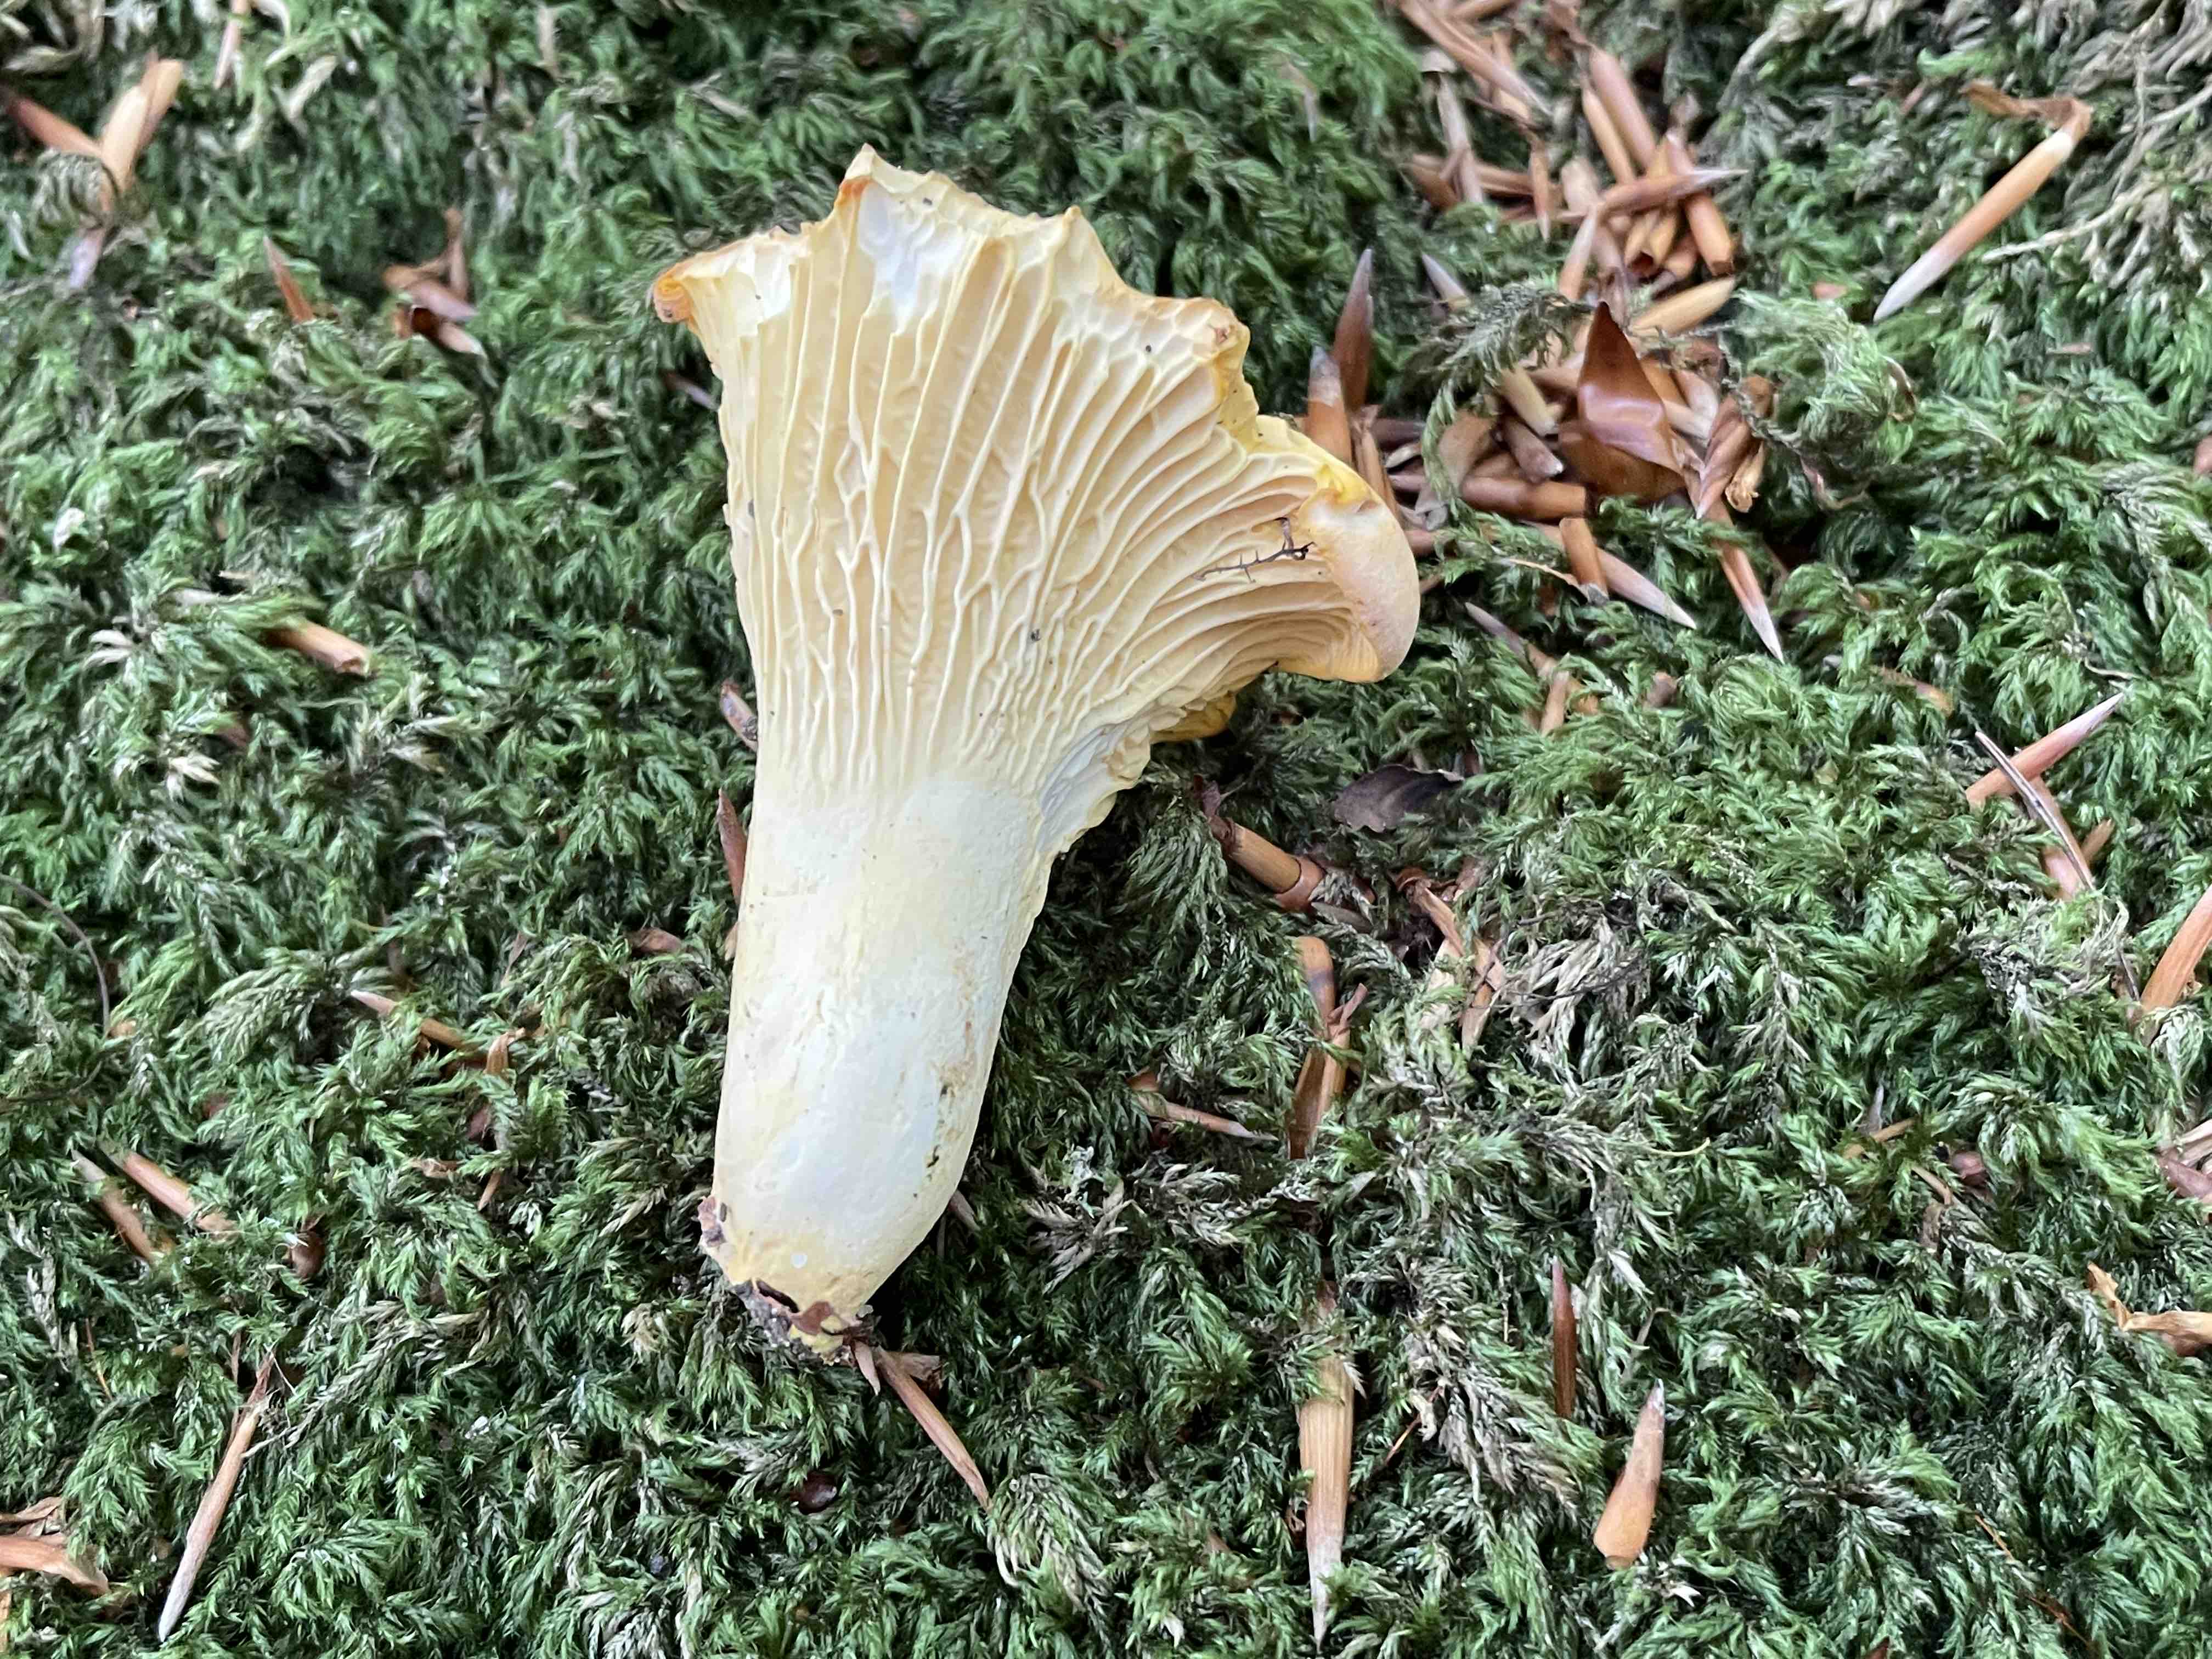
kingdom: Fungi
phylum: Basidiomycota
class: Agaricomycetes
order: Cantharellales
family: Hydnaceae
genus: Cantharellus
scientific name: Cantharellus pallens
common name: bleg kantarel
